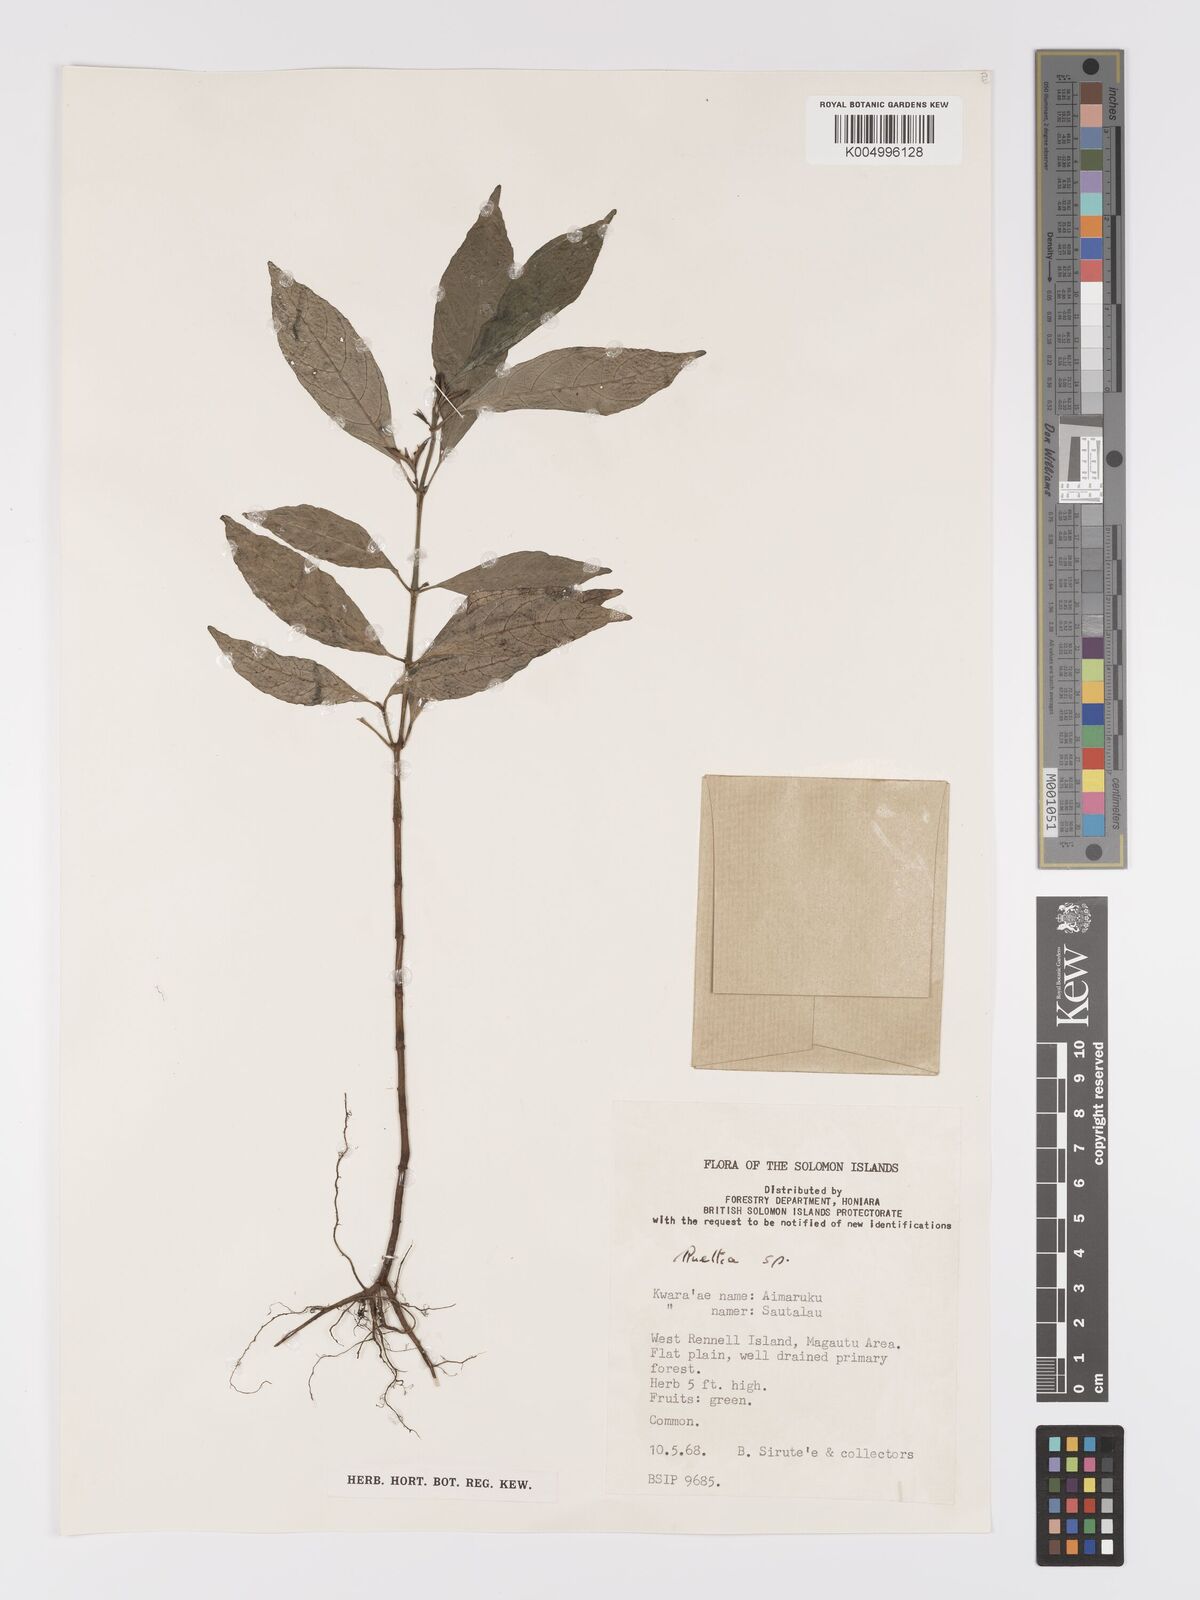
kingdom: Plantae
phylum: Tracheophyta
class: Magnoliopsida
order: Lamiales
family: Acanthaceae
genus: Ruellia
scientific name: Ruellia
